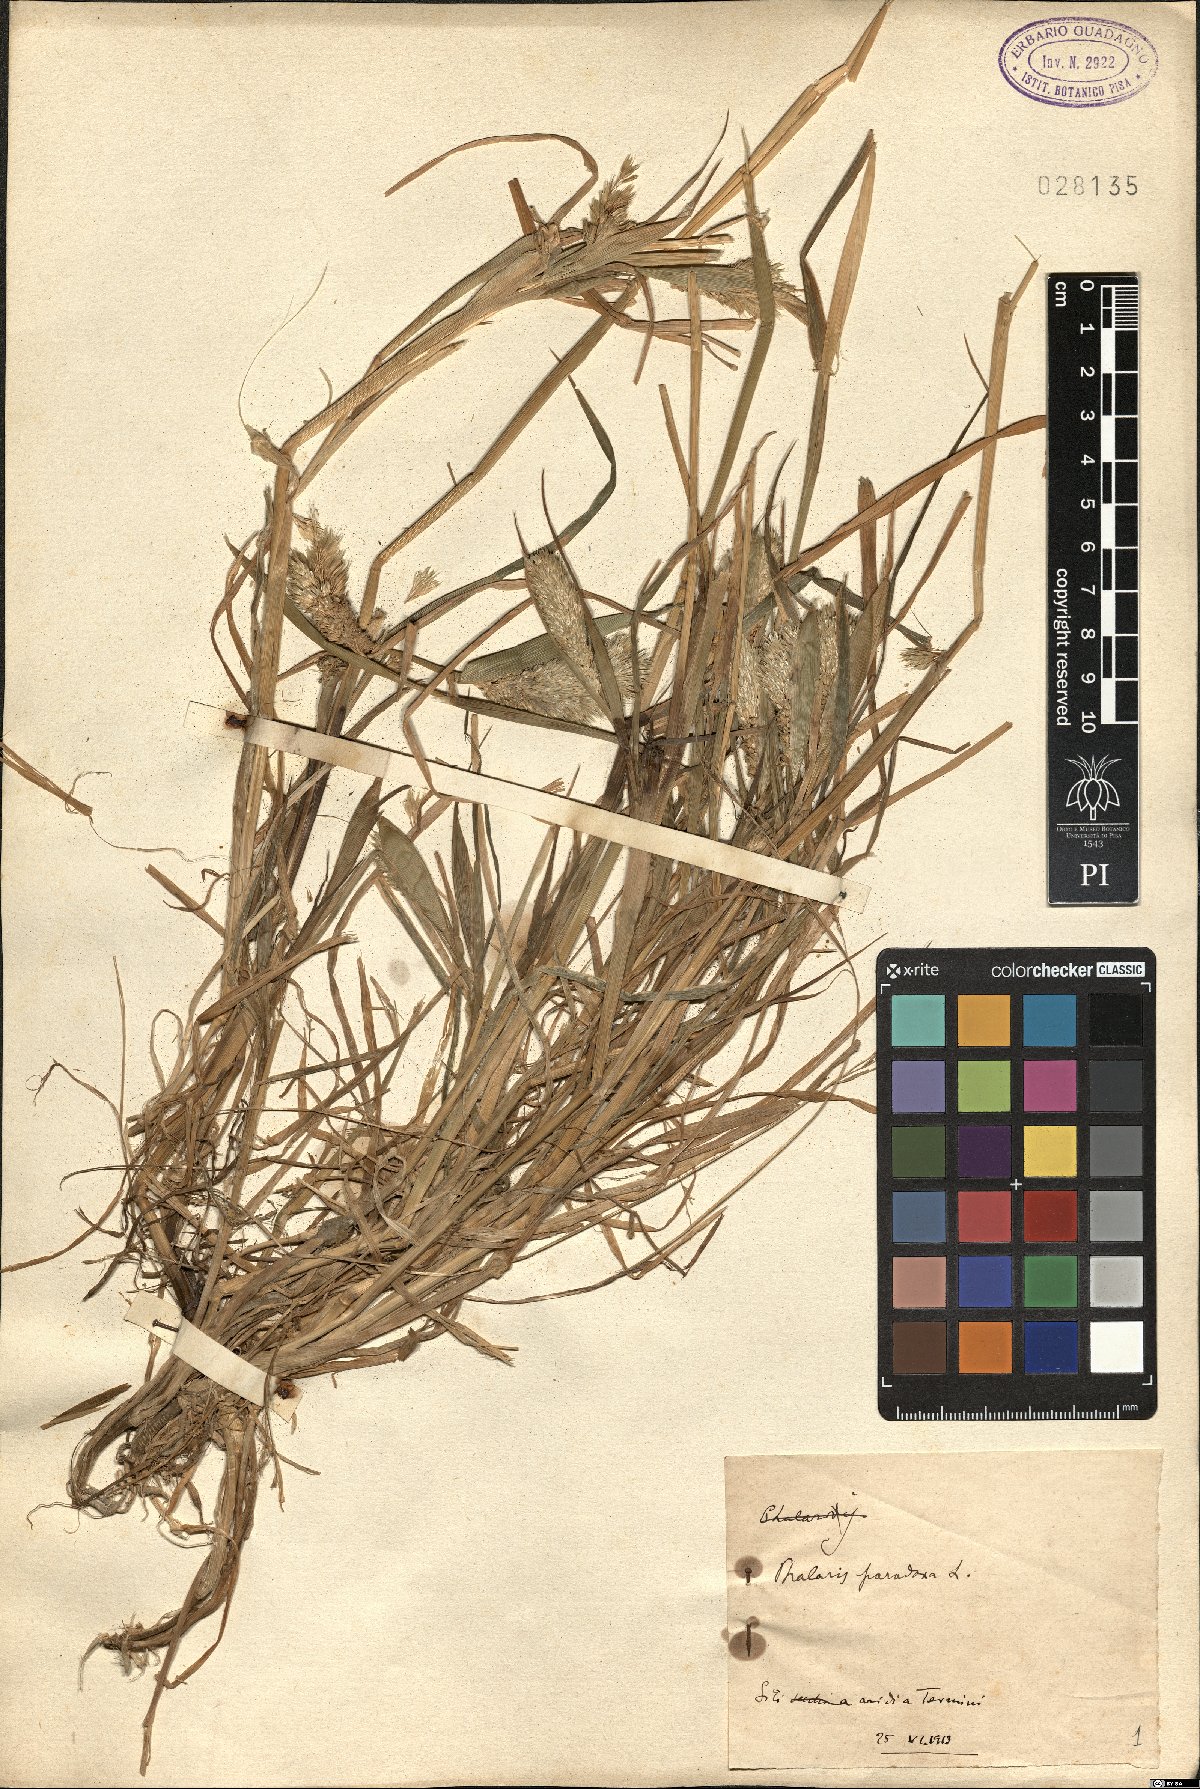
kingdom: Plantae
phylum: Tracheophyta
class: Liliopsida
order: Poales
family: Poaceae
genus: Phalaris
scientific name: Phalaris paradoxa
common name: Awned canary-grass
